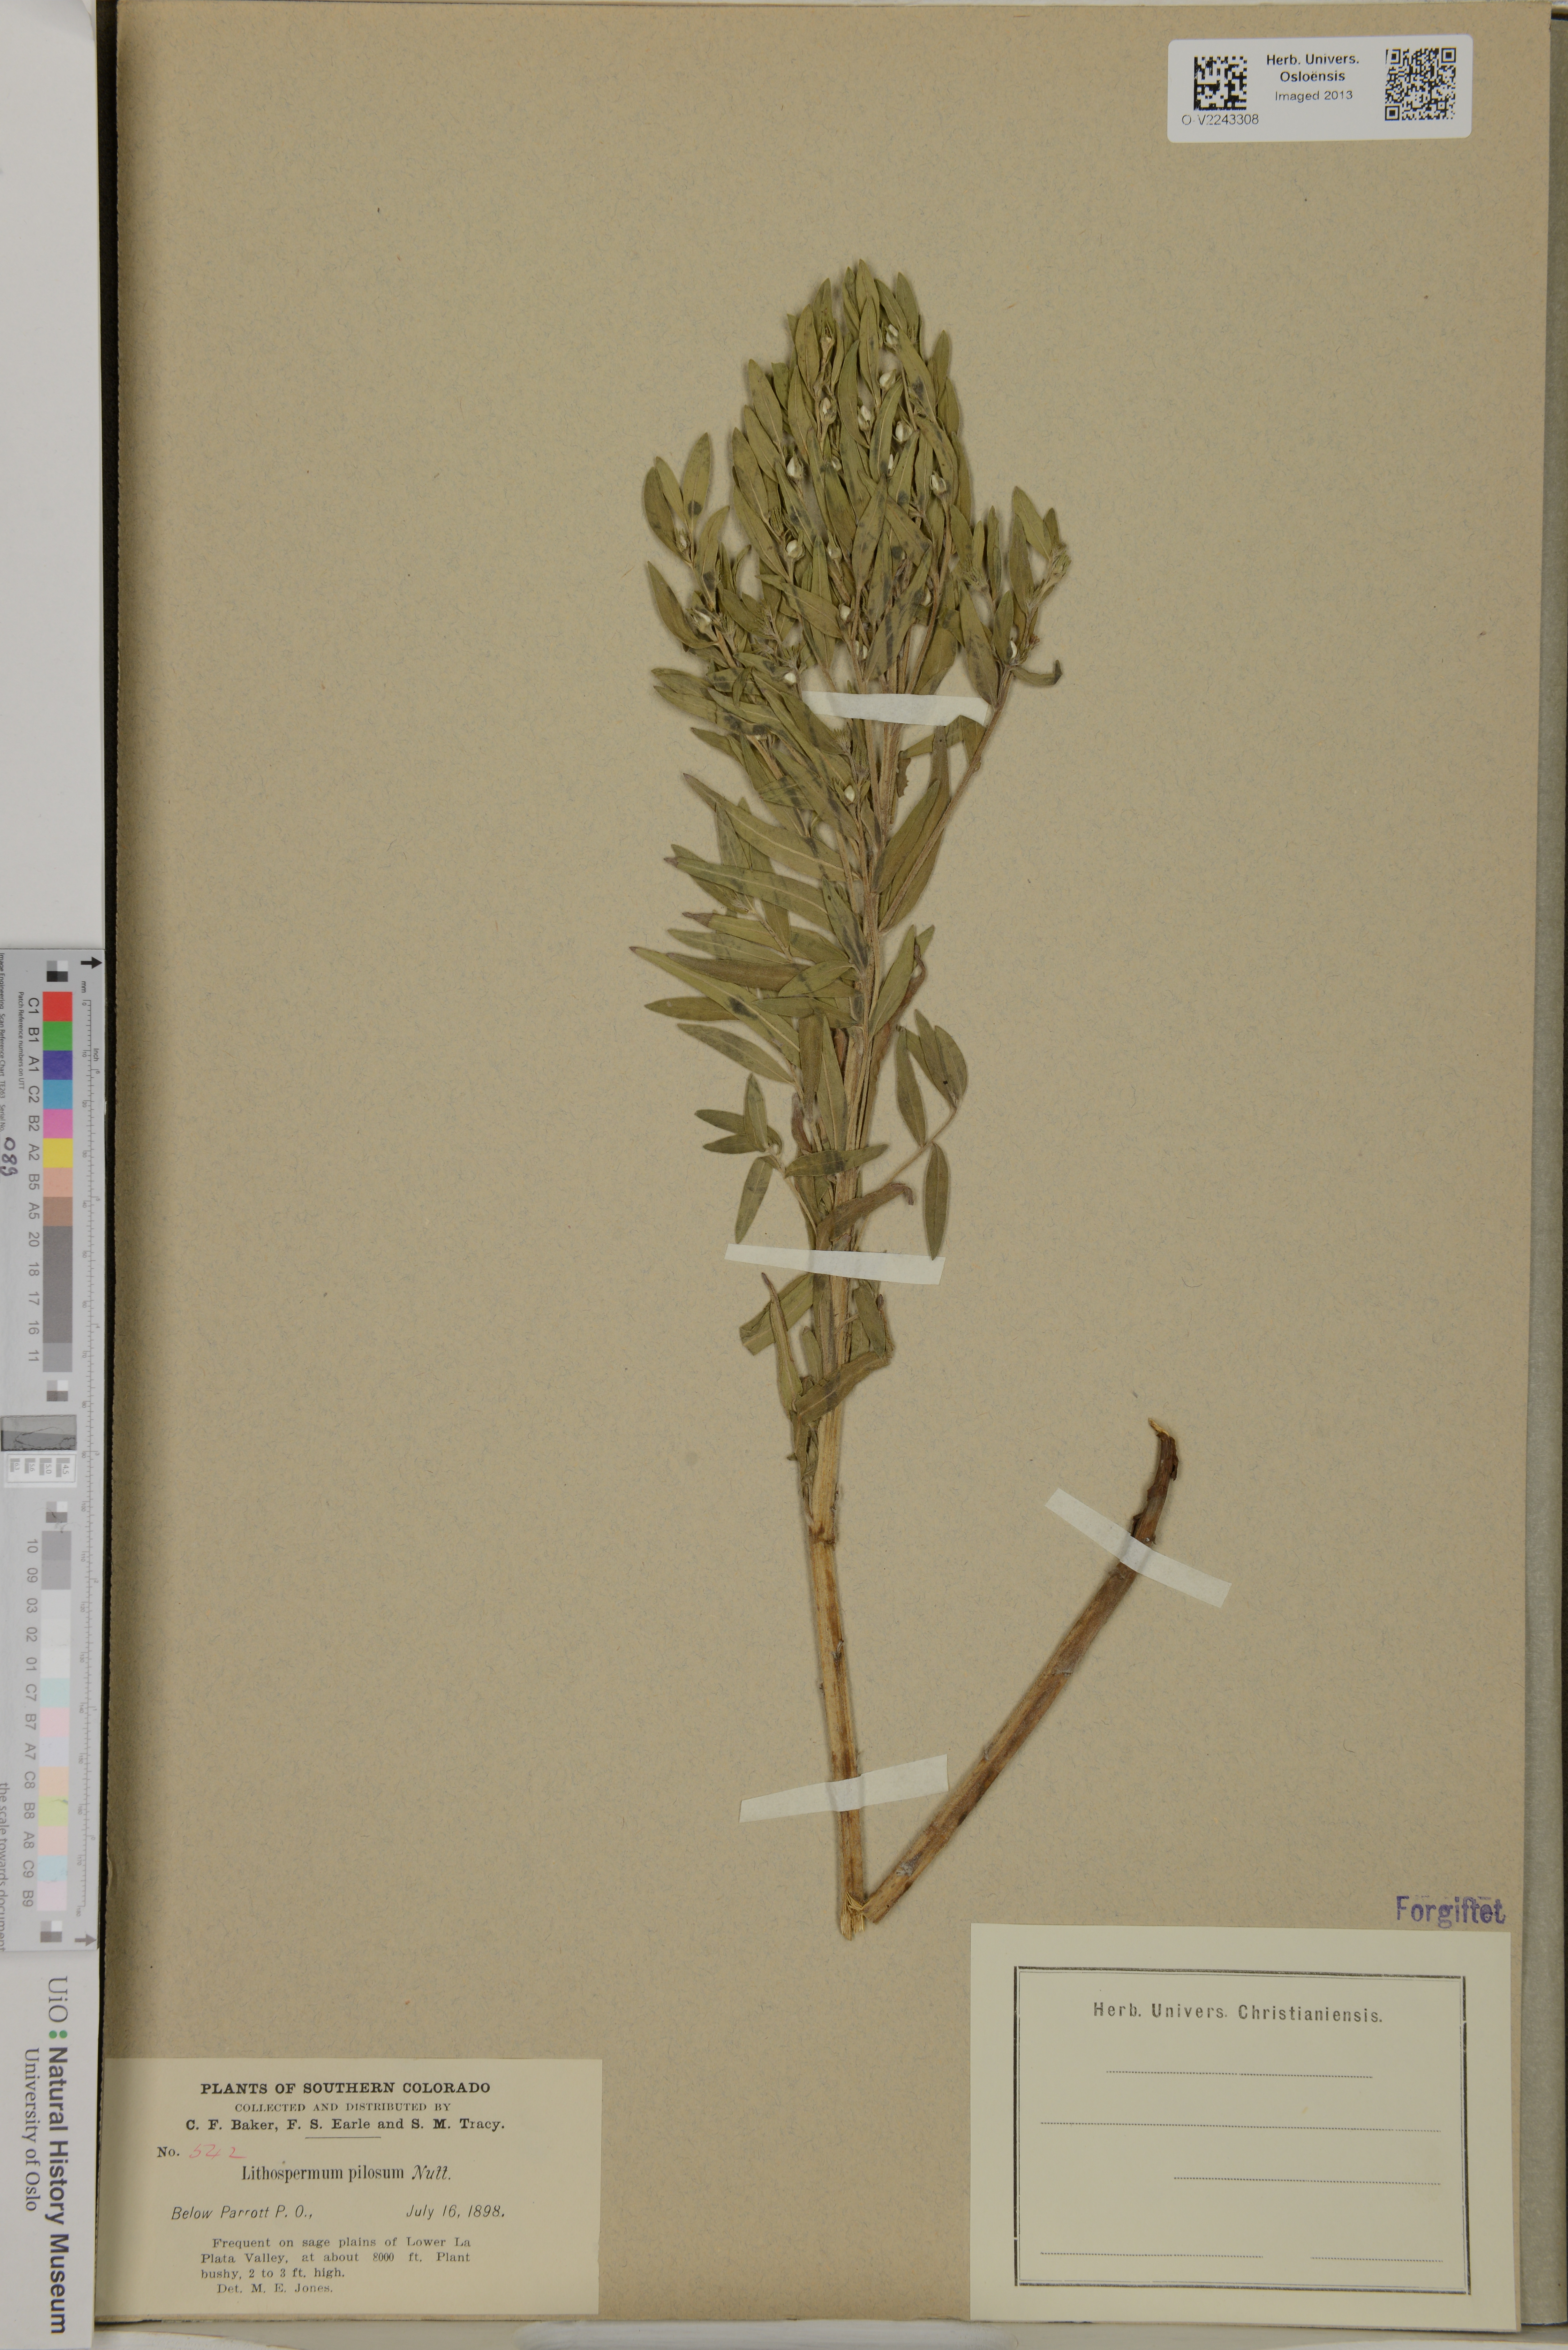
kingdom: Plantae
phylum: Tracheophyta
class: Magnoliopsida
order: Boraginales
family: Boraginaceae
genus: Lithospermum
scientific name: Lithospermum
